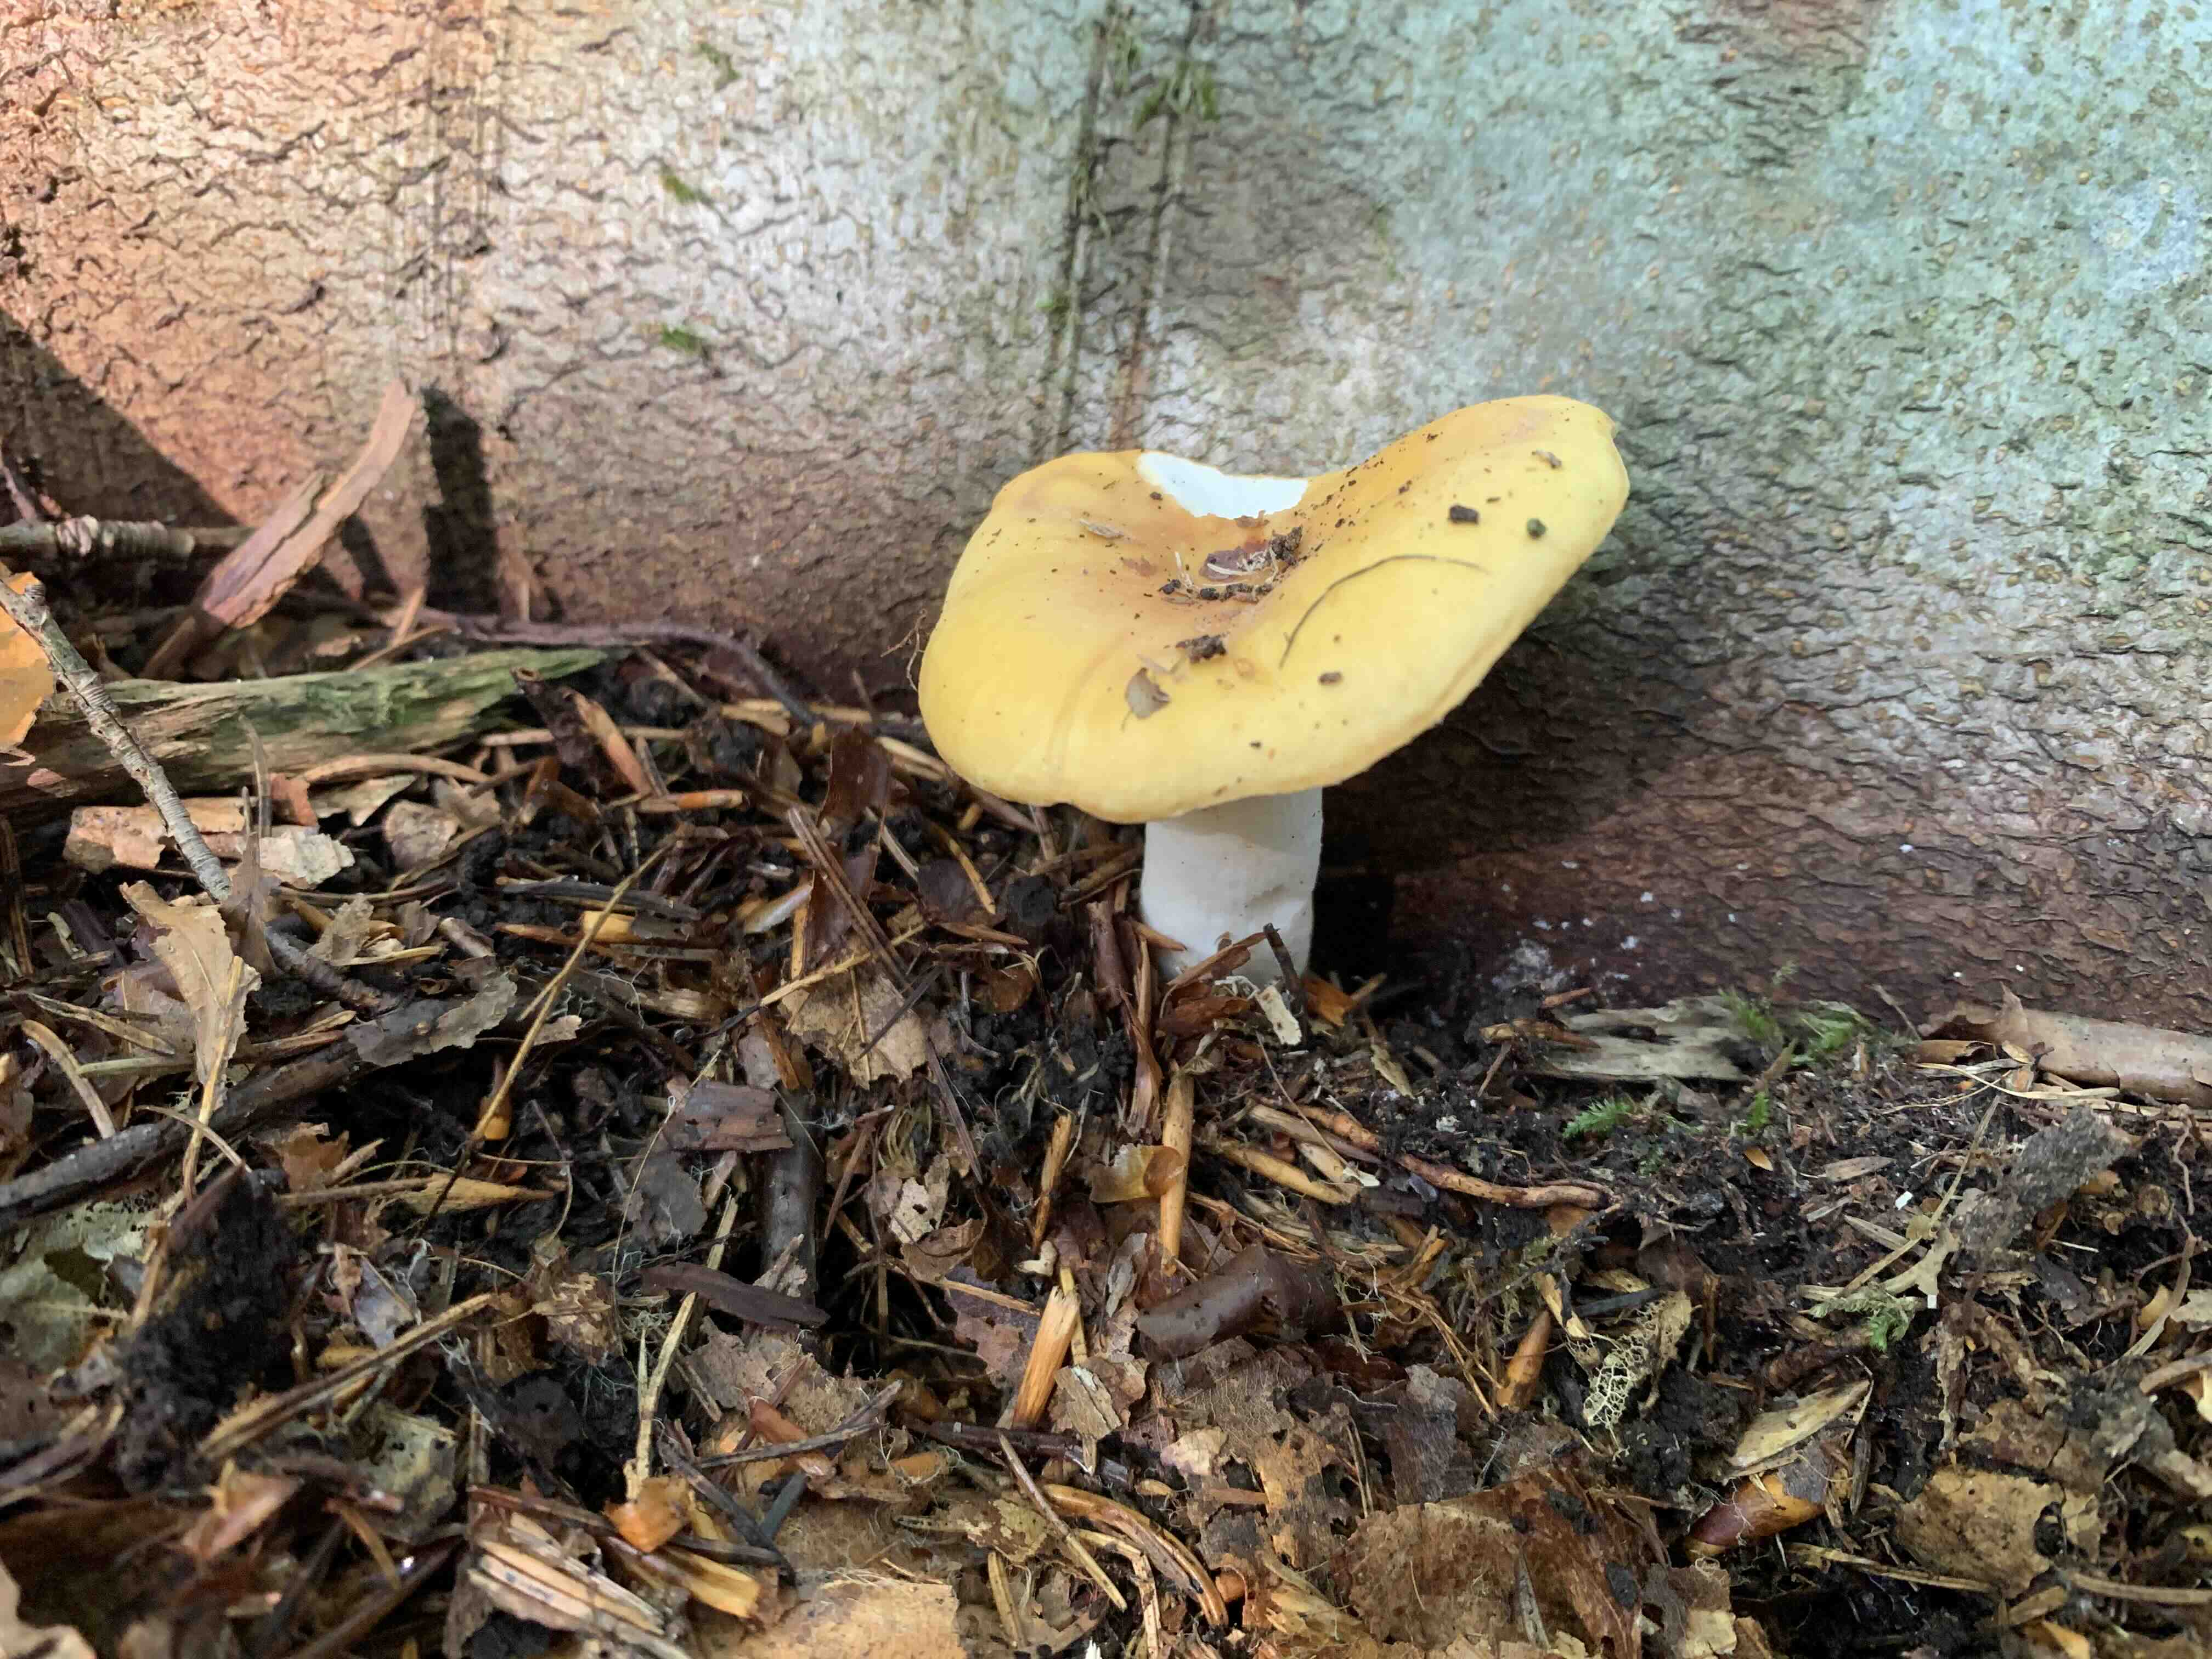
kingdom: Fungi
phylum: Basidiomycota
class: Agaricomycetes
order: Russulales
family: Russulaceae
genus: Russula
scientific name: Russula ochroleuca
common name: okkergul skørhat
